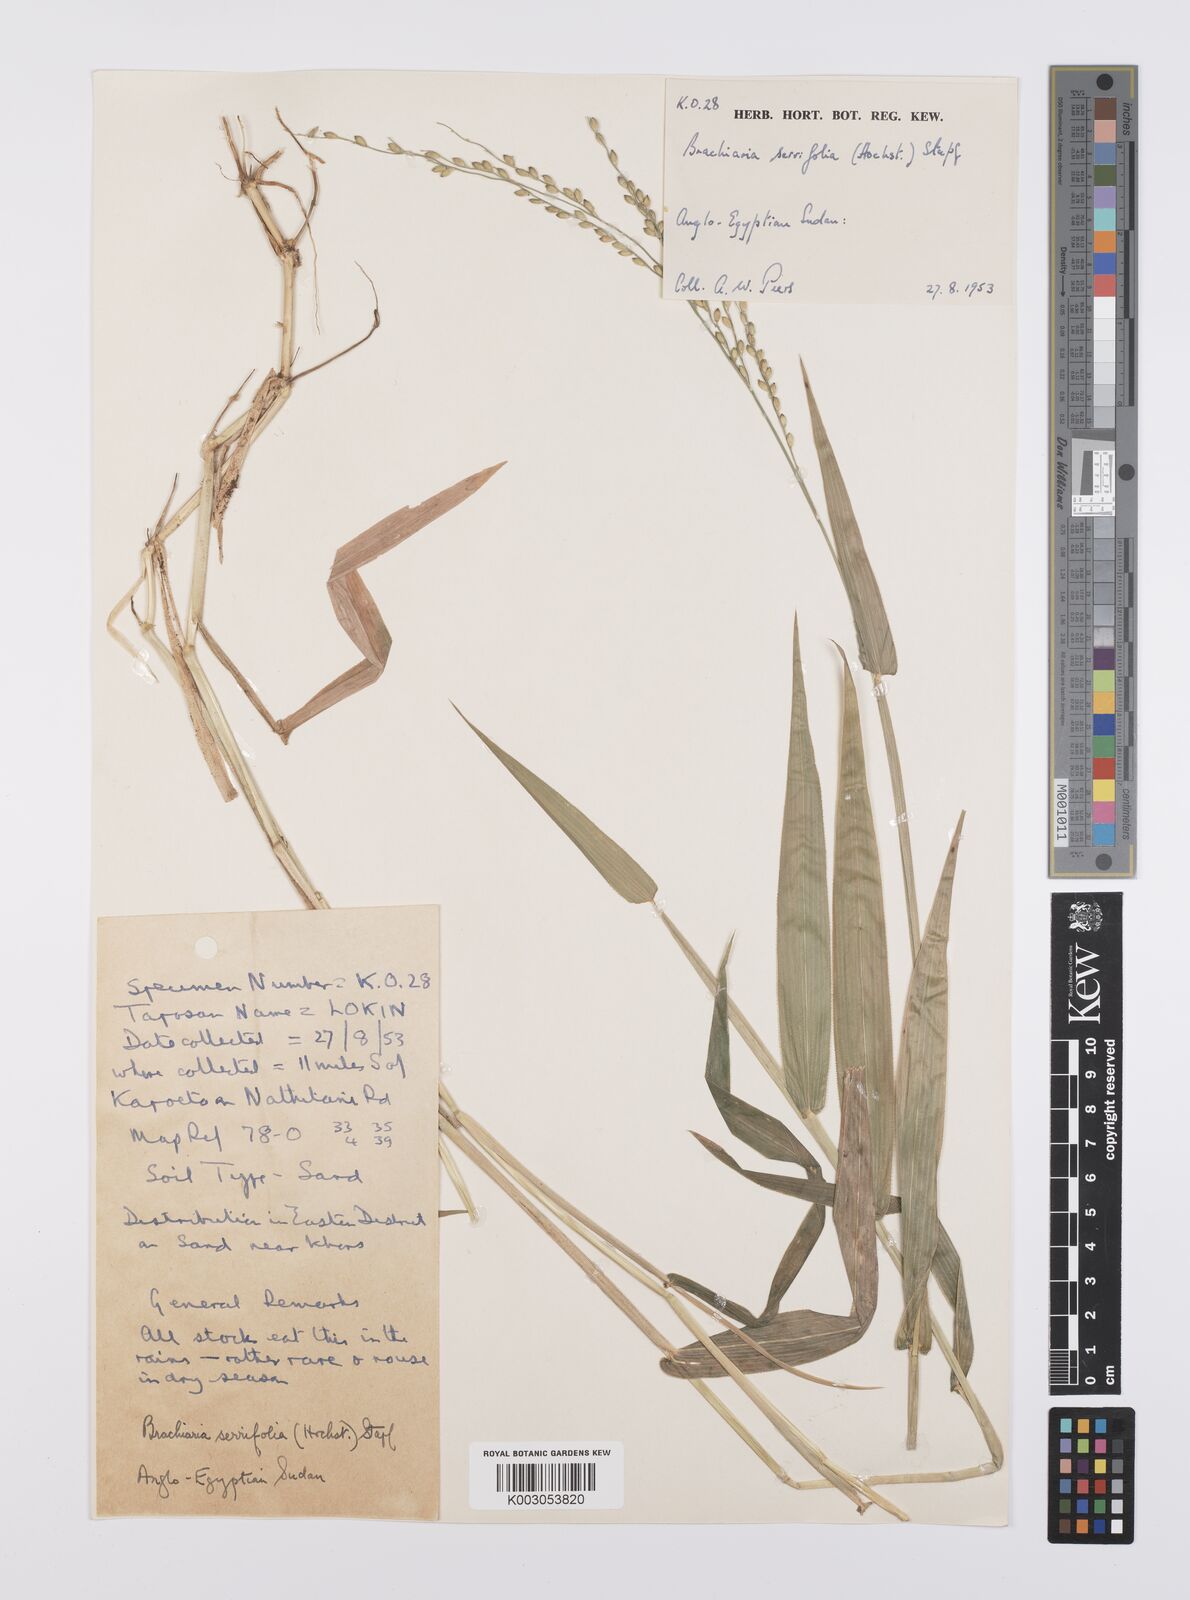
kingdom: Plantae
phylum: Tracheophyta
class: Liliopsida
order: Poales
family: Poaceae
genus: Urochloa
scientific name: Urochloa serrifolia
